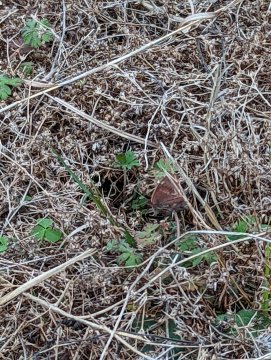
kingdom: Animalia
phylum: Arthropoda
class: Insecta
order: Lepidoptera
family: Nymphalidae
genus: Junonia
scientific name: Junonia coenia
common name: Common Buckeye
